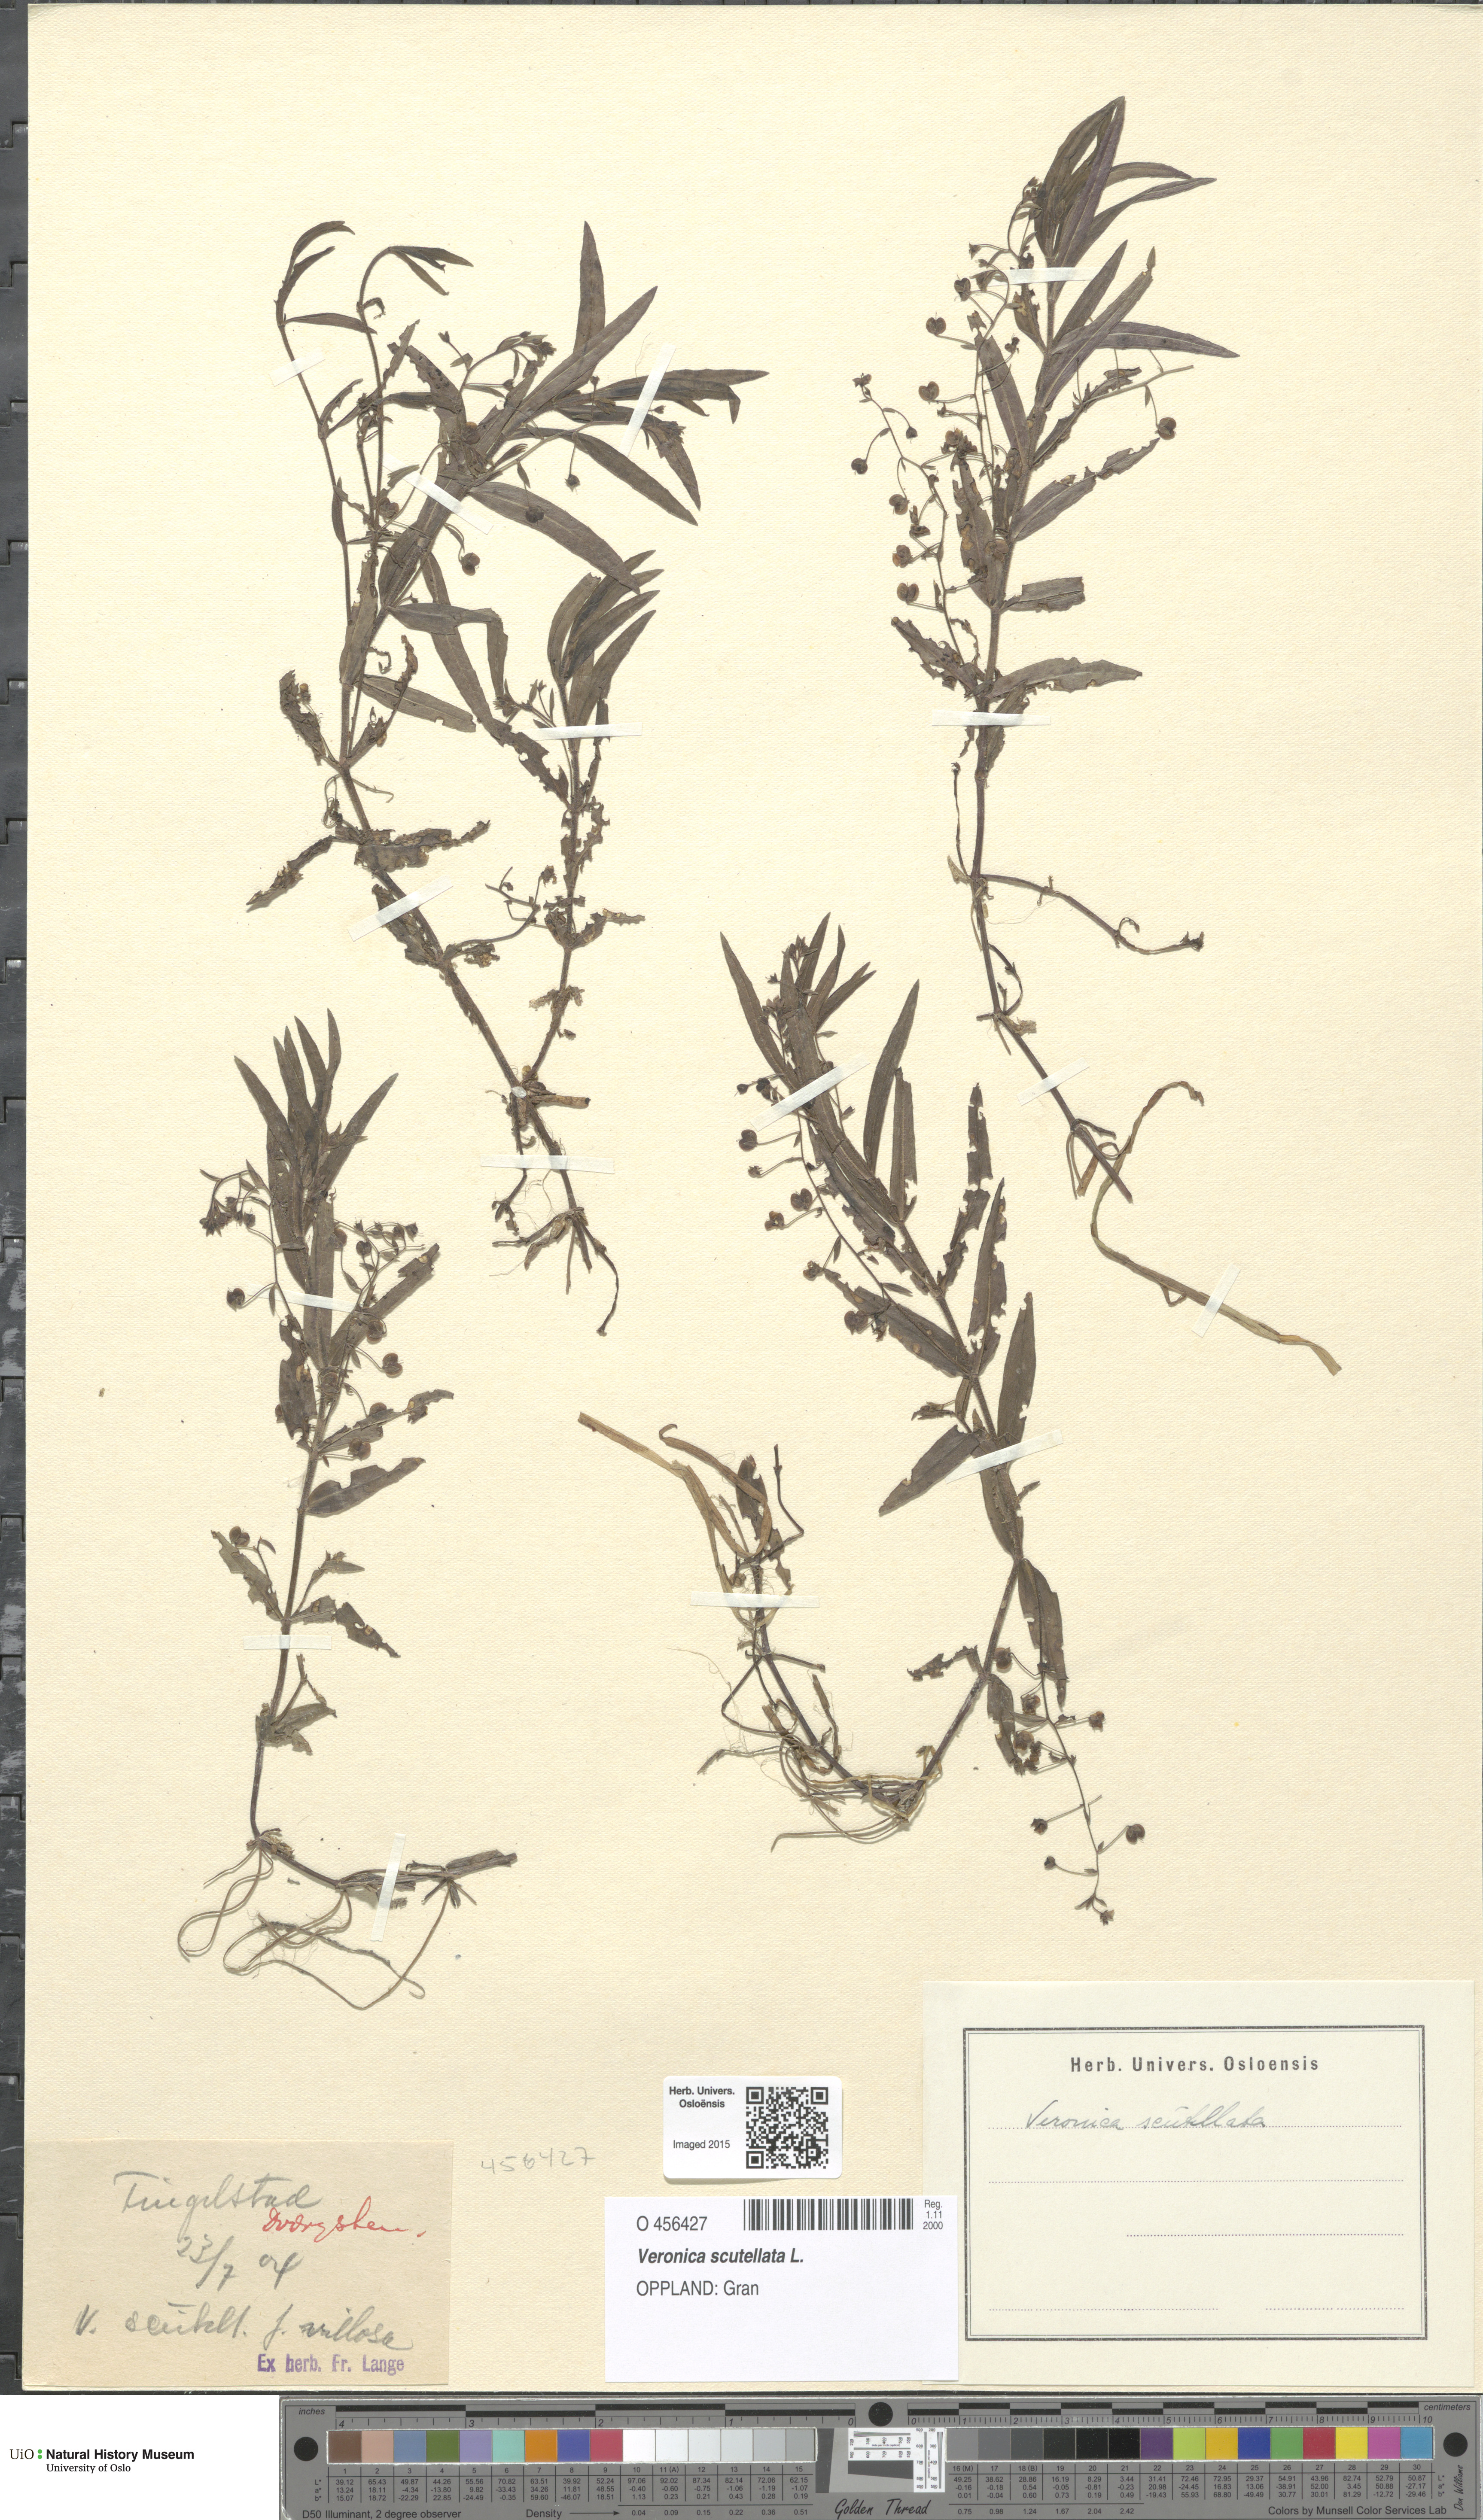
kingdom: Plantae
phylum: Tracheophyta
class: Magnoliopsida
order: Lamiales
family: Plantaginaceae
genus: Veronica
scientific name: Veronica scutellata
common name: Marsh speedwell
